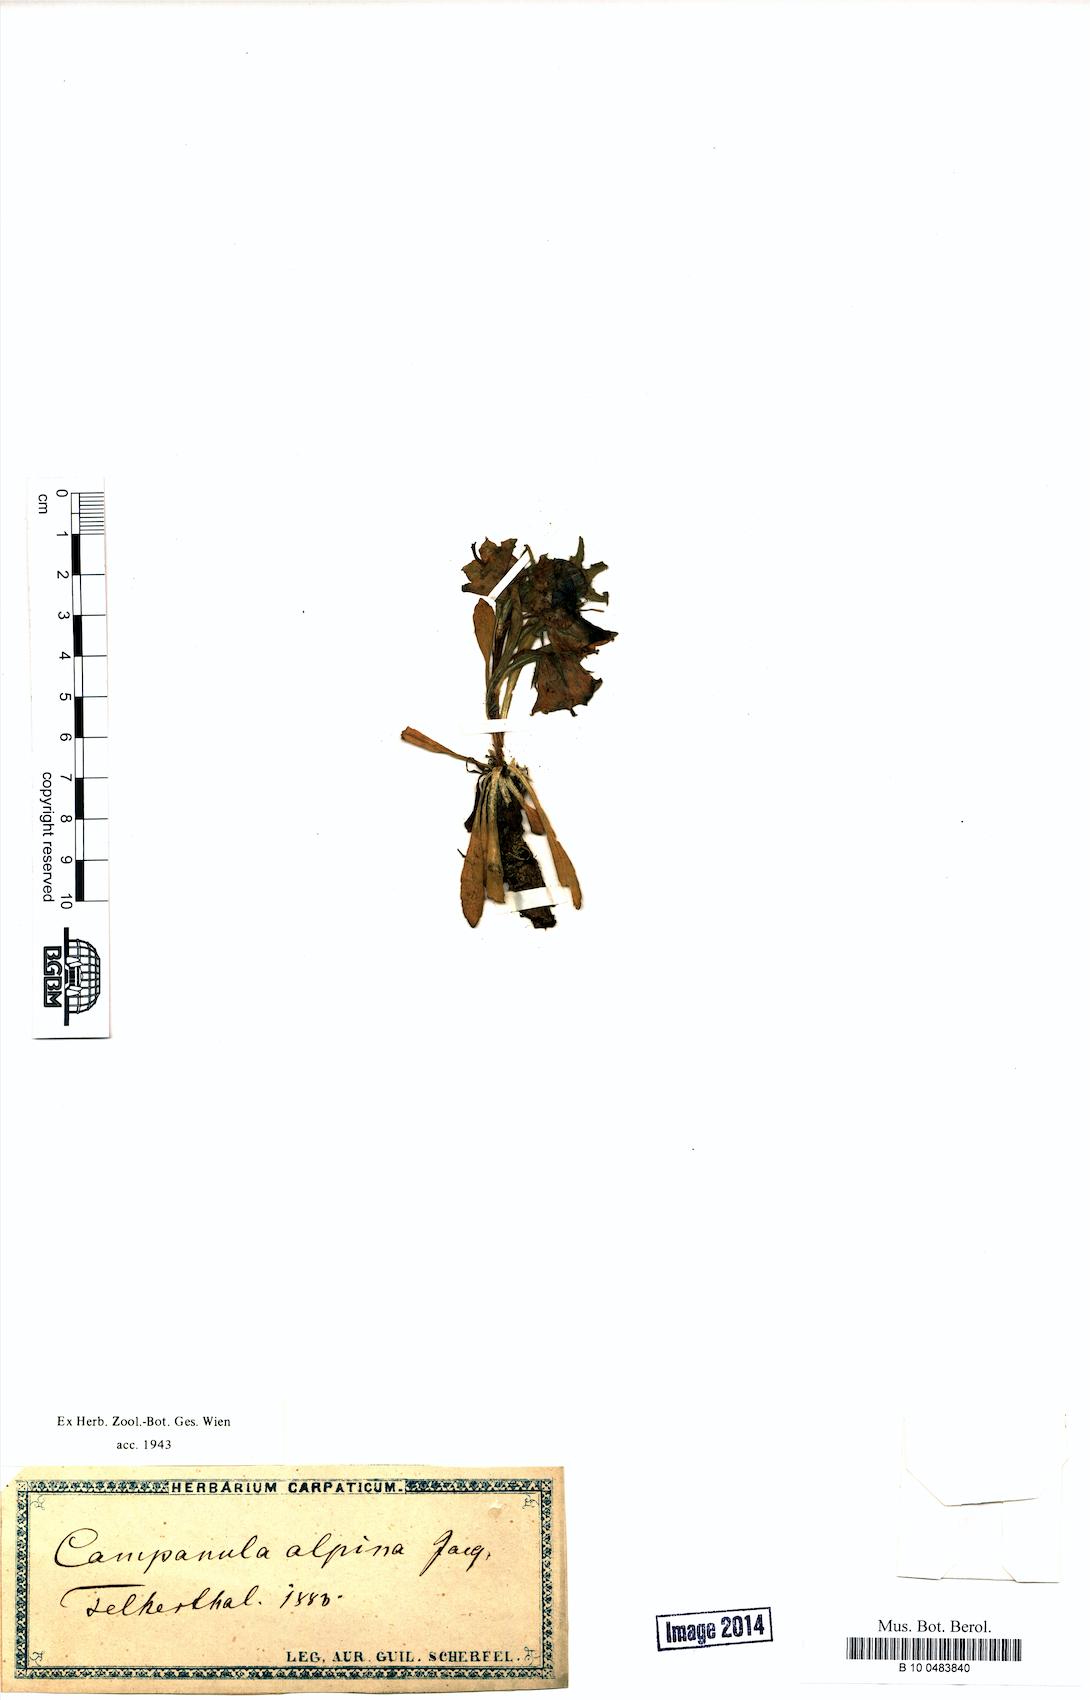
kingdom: Plantae
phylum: Tracheophyta
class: Magnoliopsida
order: Asterales
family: Campanulaceae
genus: Campanula
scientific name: Campanula alpina
